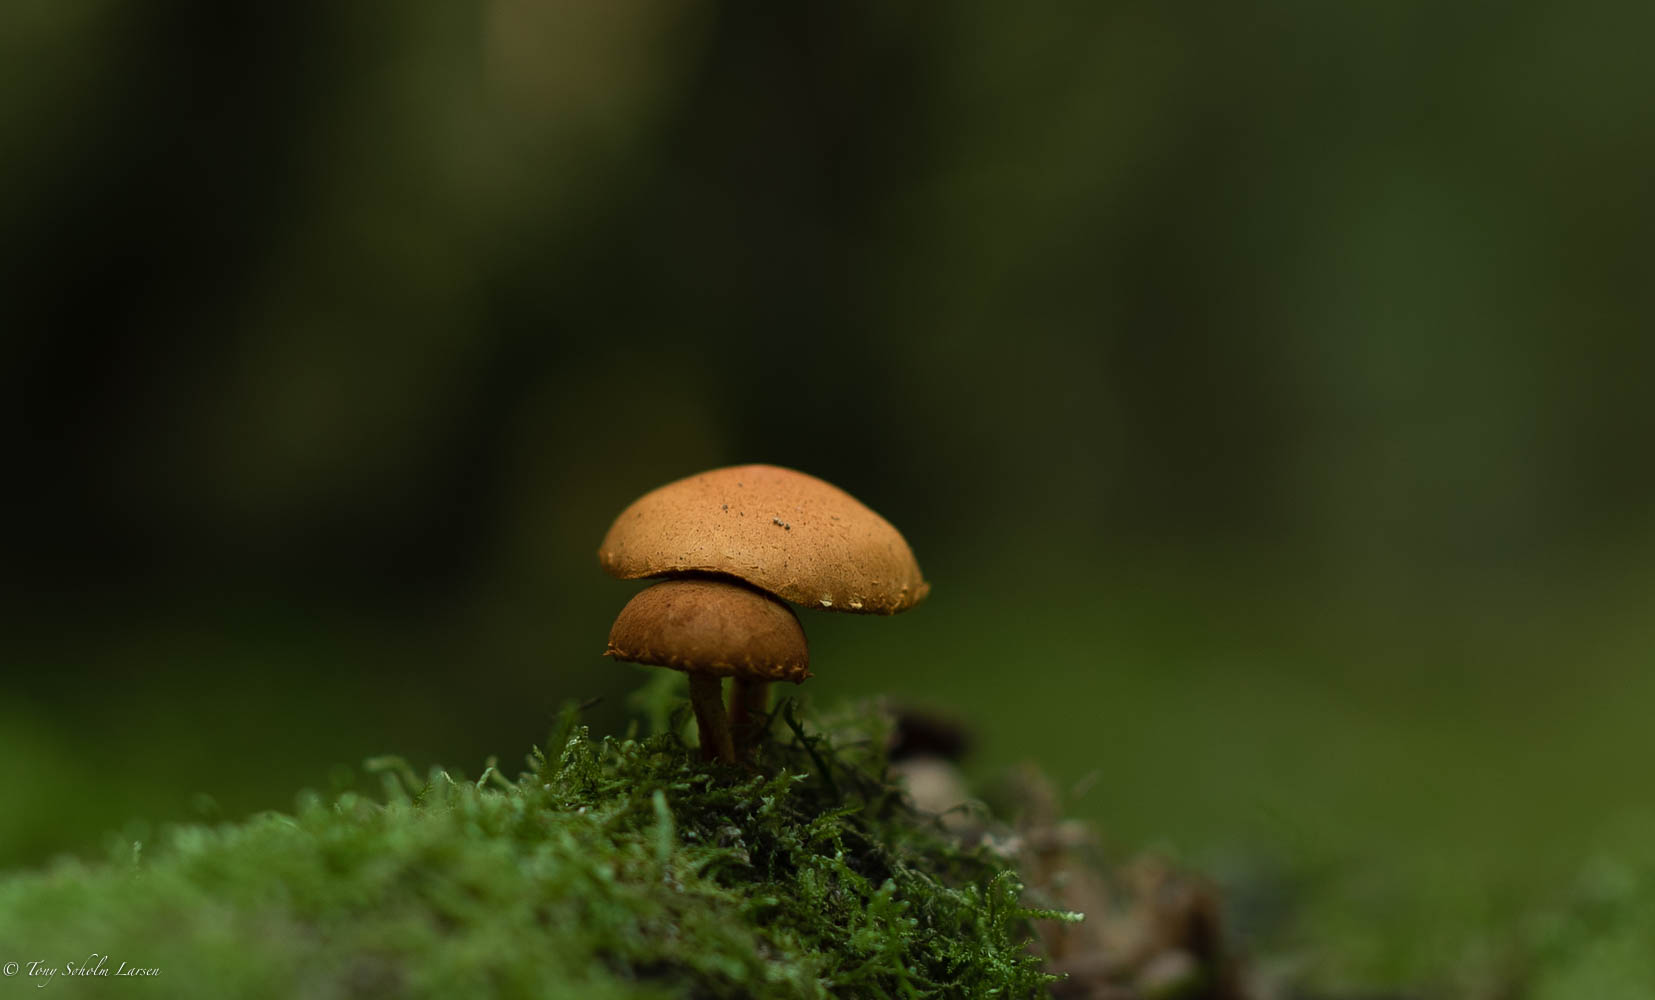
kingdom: Fungi
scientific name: Fungi
